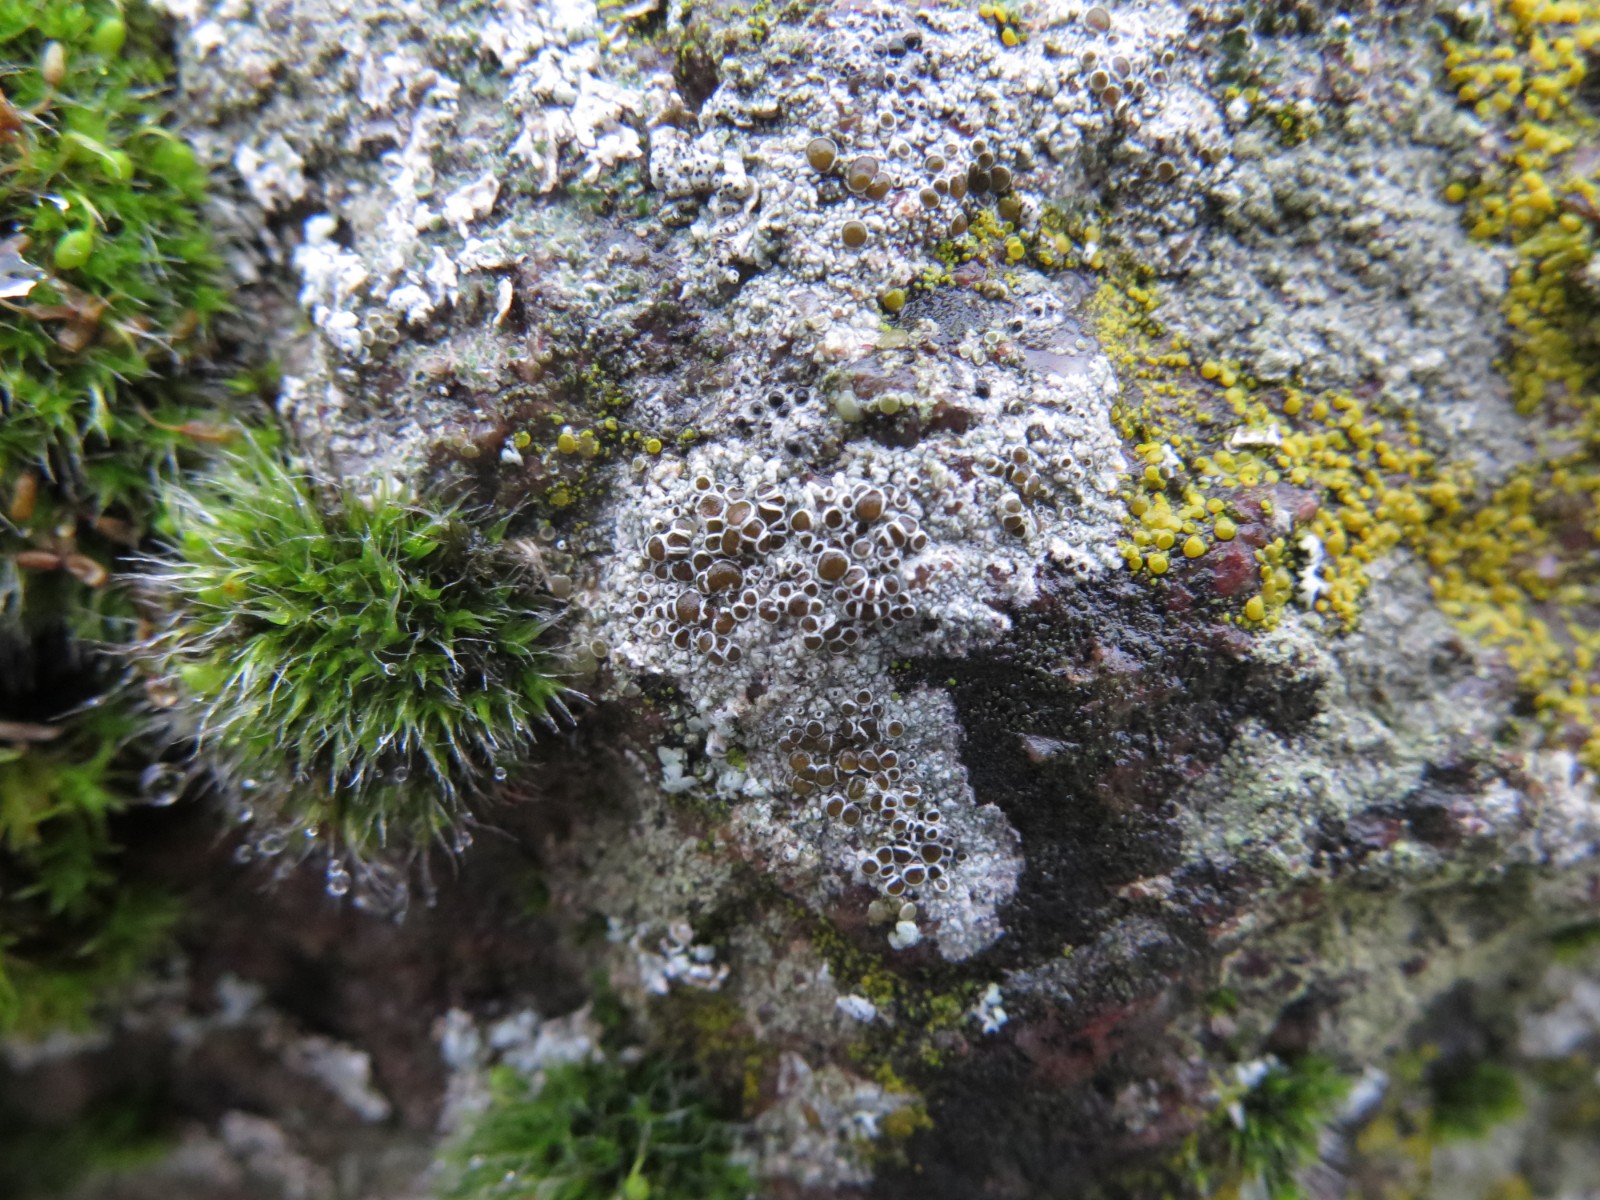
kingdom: Fungi
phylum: Ascomycota
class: Lecanoromycetes
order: Lecanorales
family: Lecanoraceae
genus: Lecanora
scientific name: Lecanora campestris
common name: mur-kantskivelav
